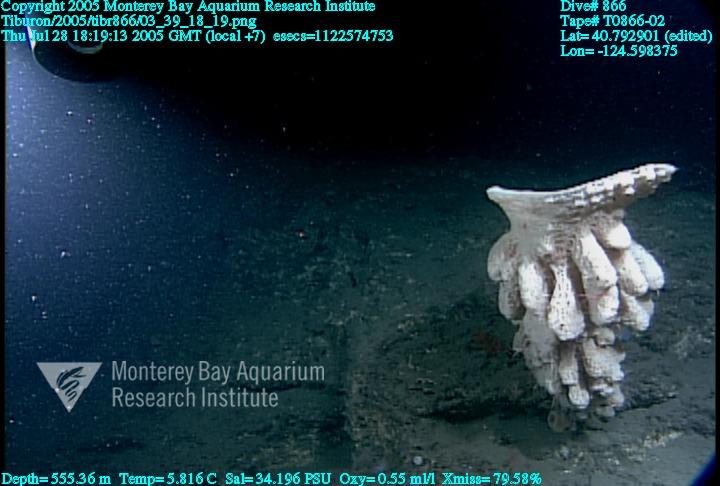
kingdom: Animalia
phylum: Porifera
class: Hexactinellida
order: Sceptrulophora
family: Aphrocallistidae
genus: Heterochone
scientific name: Heterochone calyx
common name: Fingered goblet glass sponge
